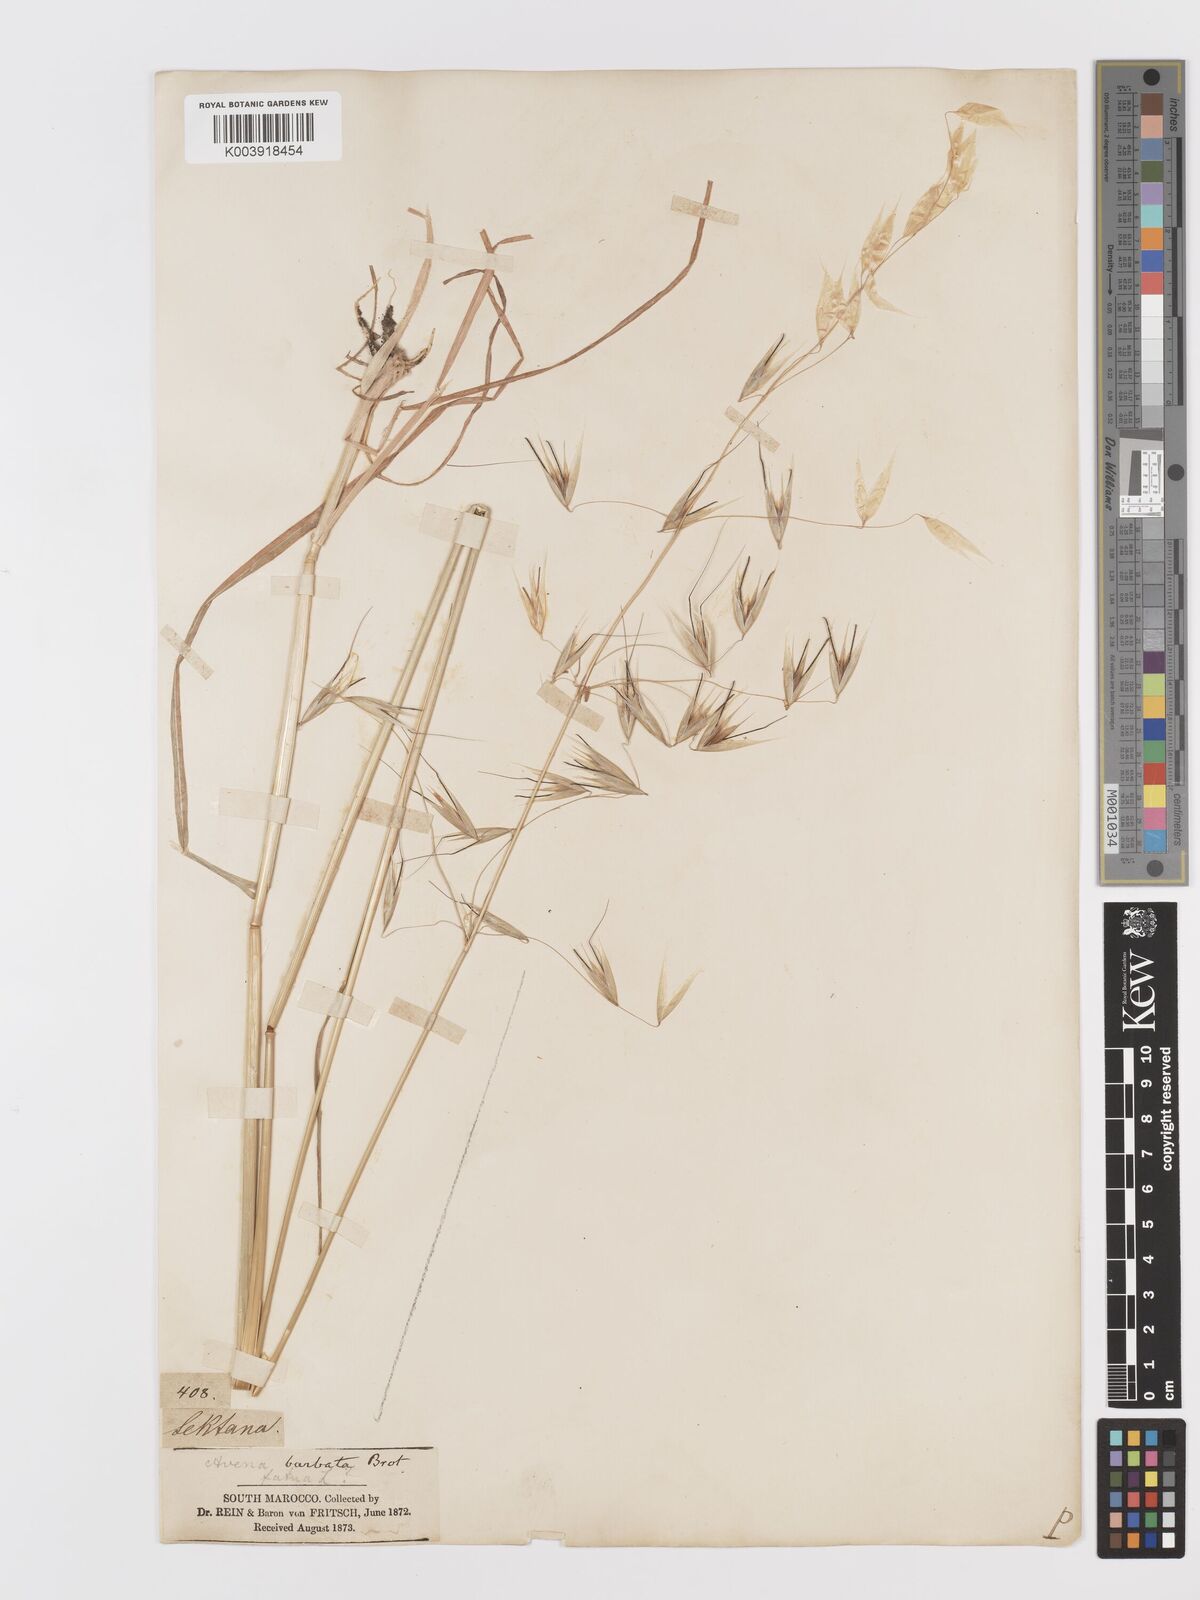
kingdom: Plantae
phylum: Tracheophyta
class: Liliopsida
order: Poales
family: Poaceae
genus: Avena
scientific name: Avena
